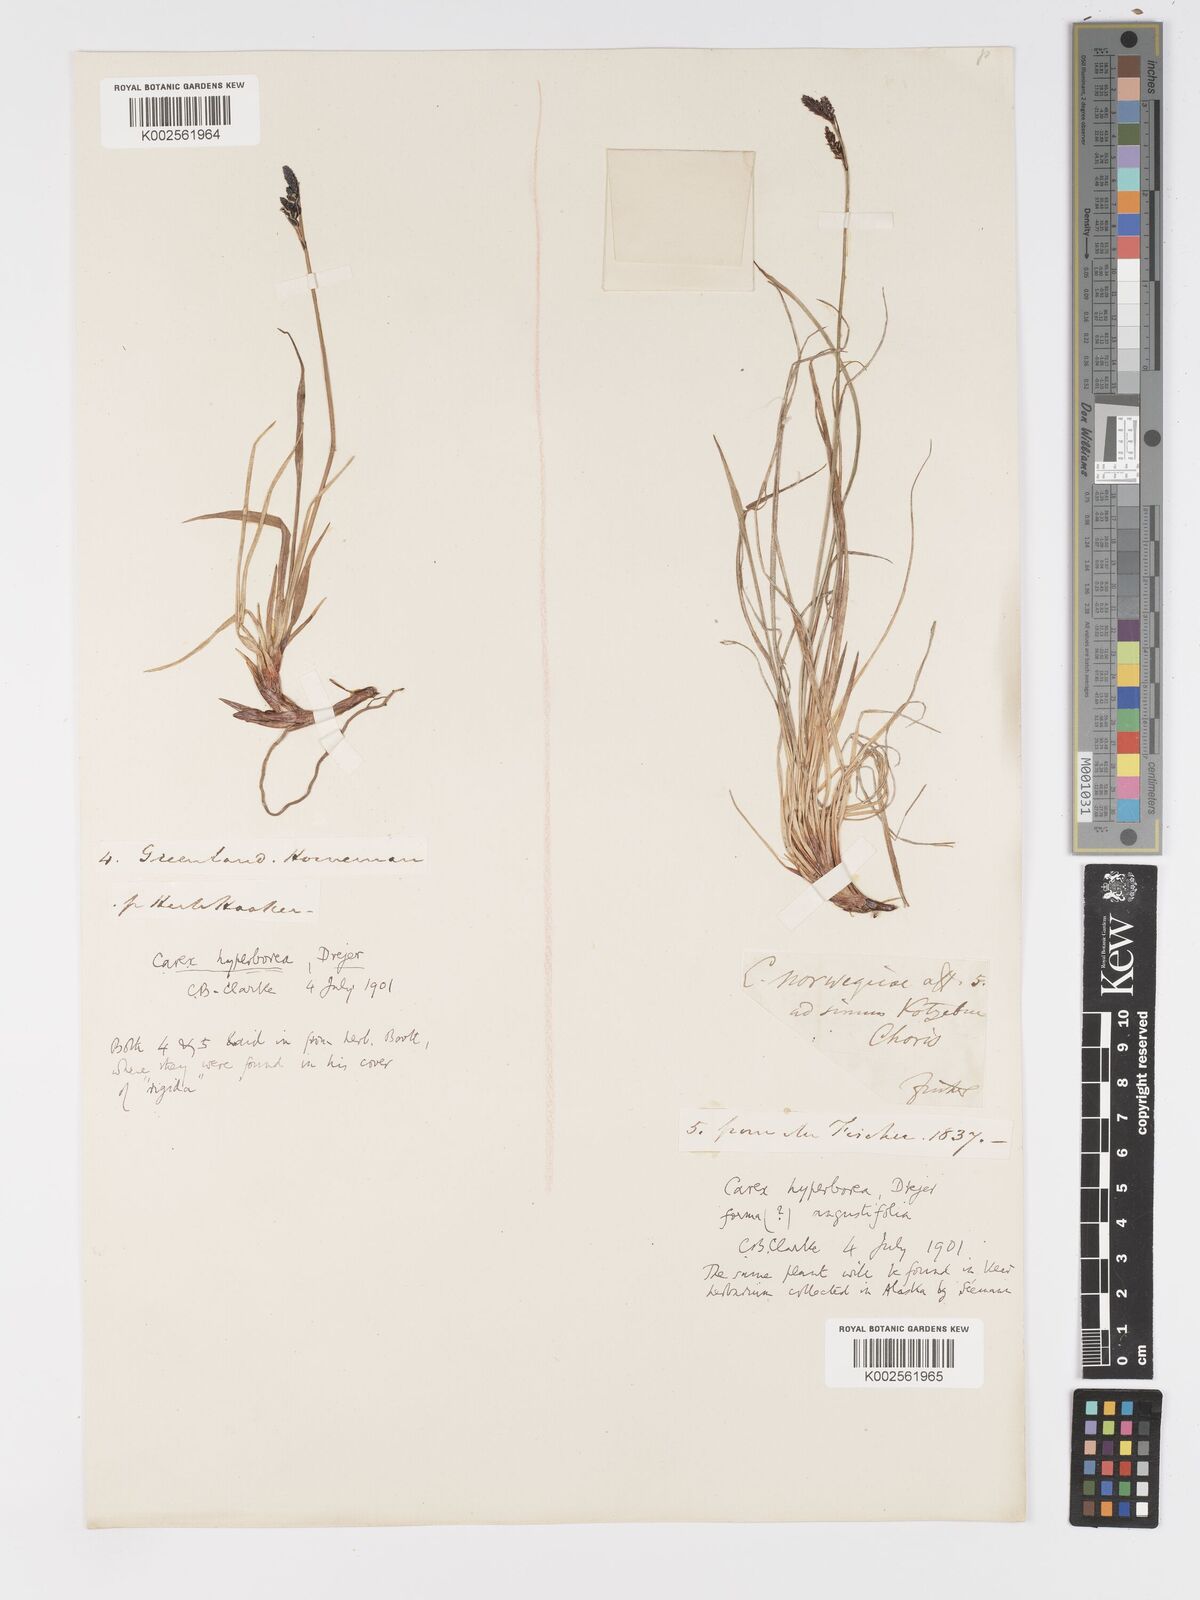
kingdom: Plantae
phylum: Tracheophyta
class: Liliopsida
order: Poales
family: Cyperaceae
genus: Carex
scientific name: Carex bigelowii
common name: Stiff sedge
